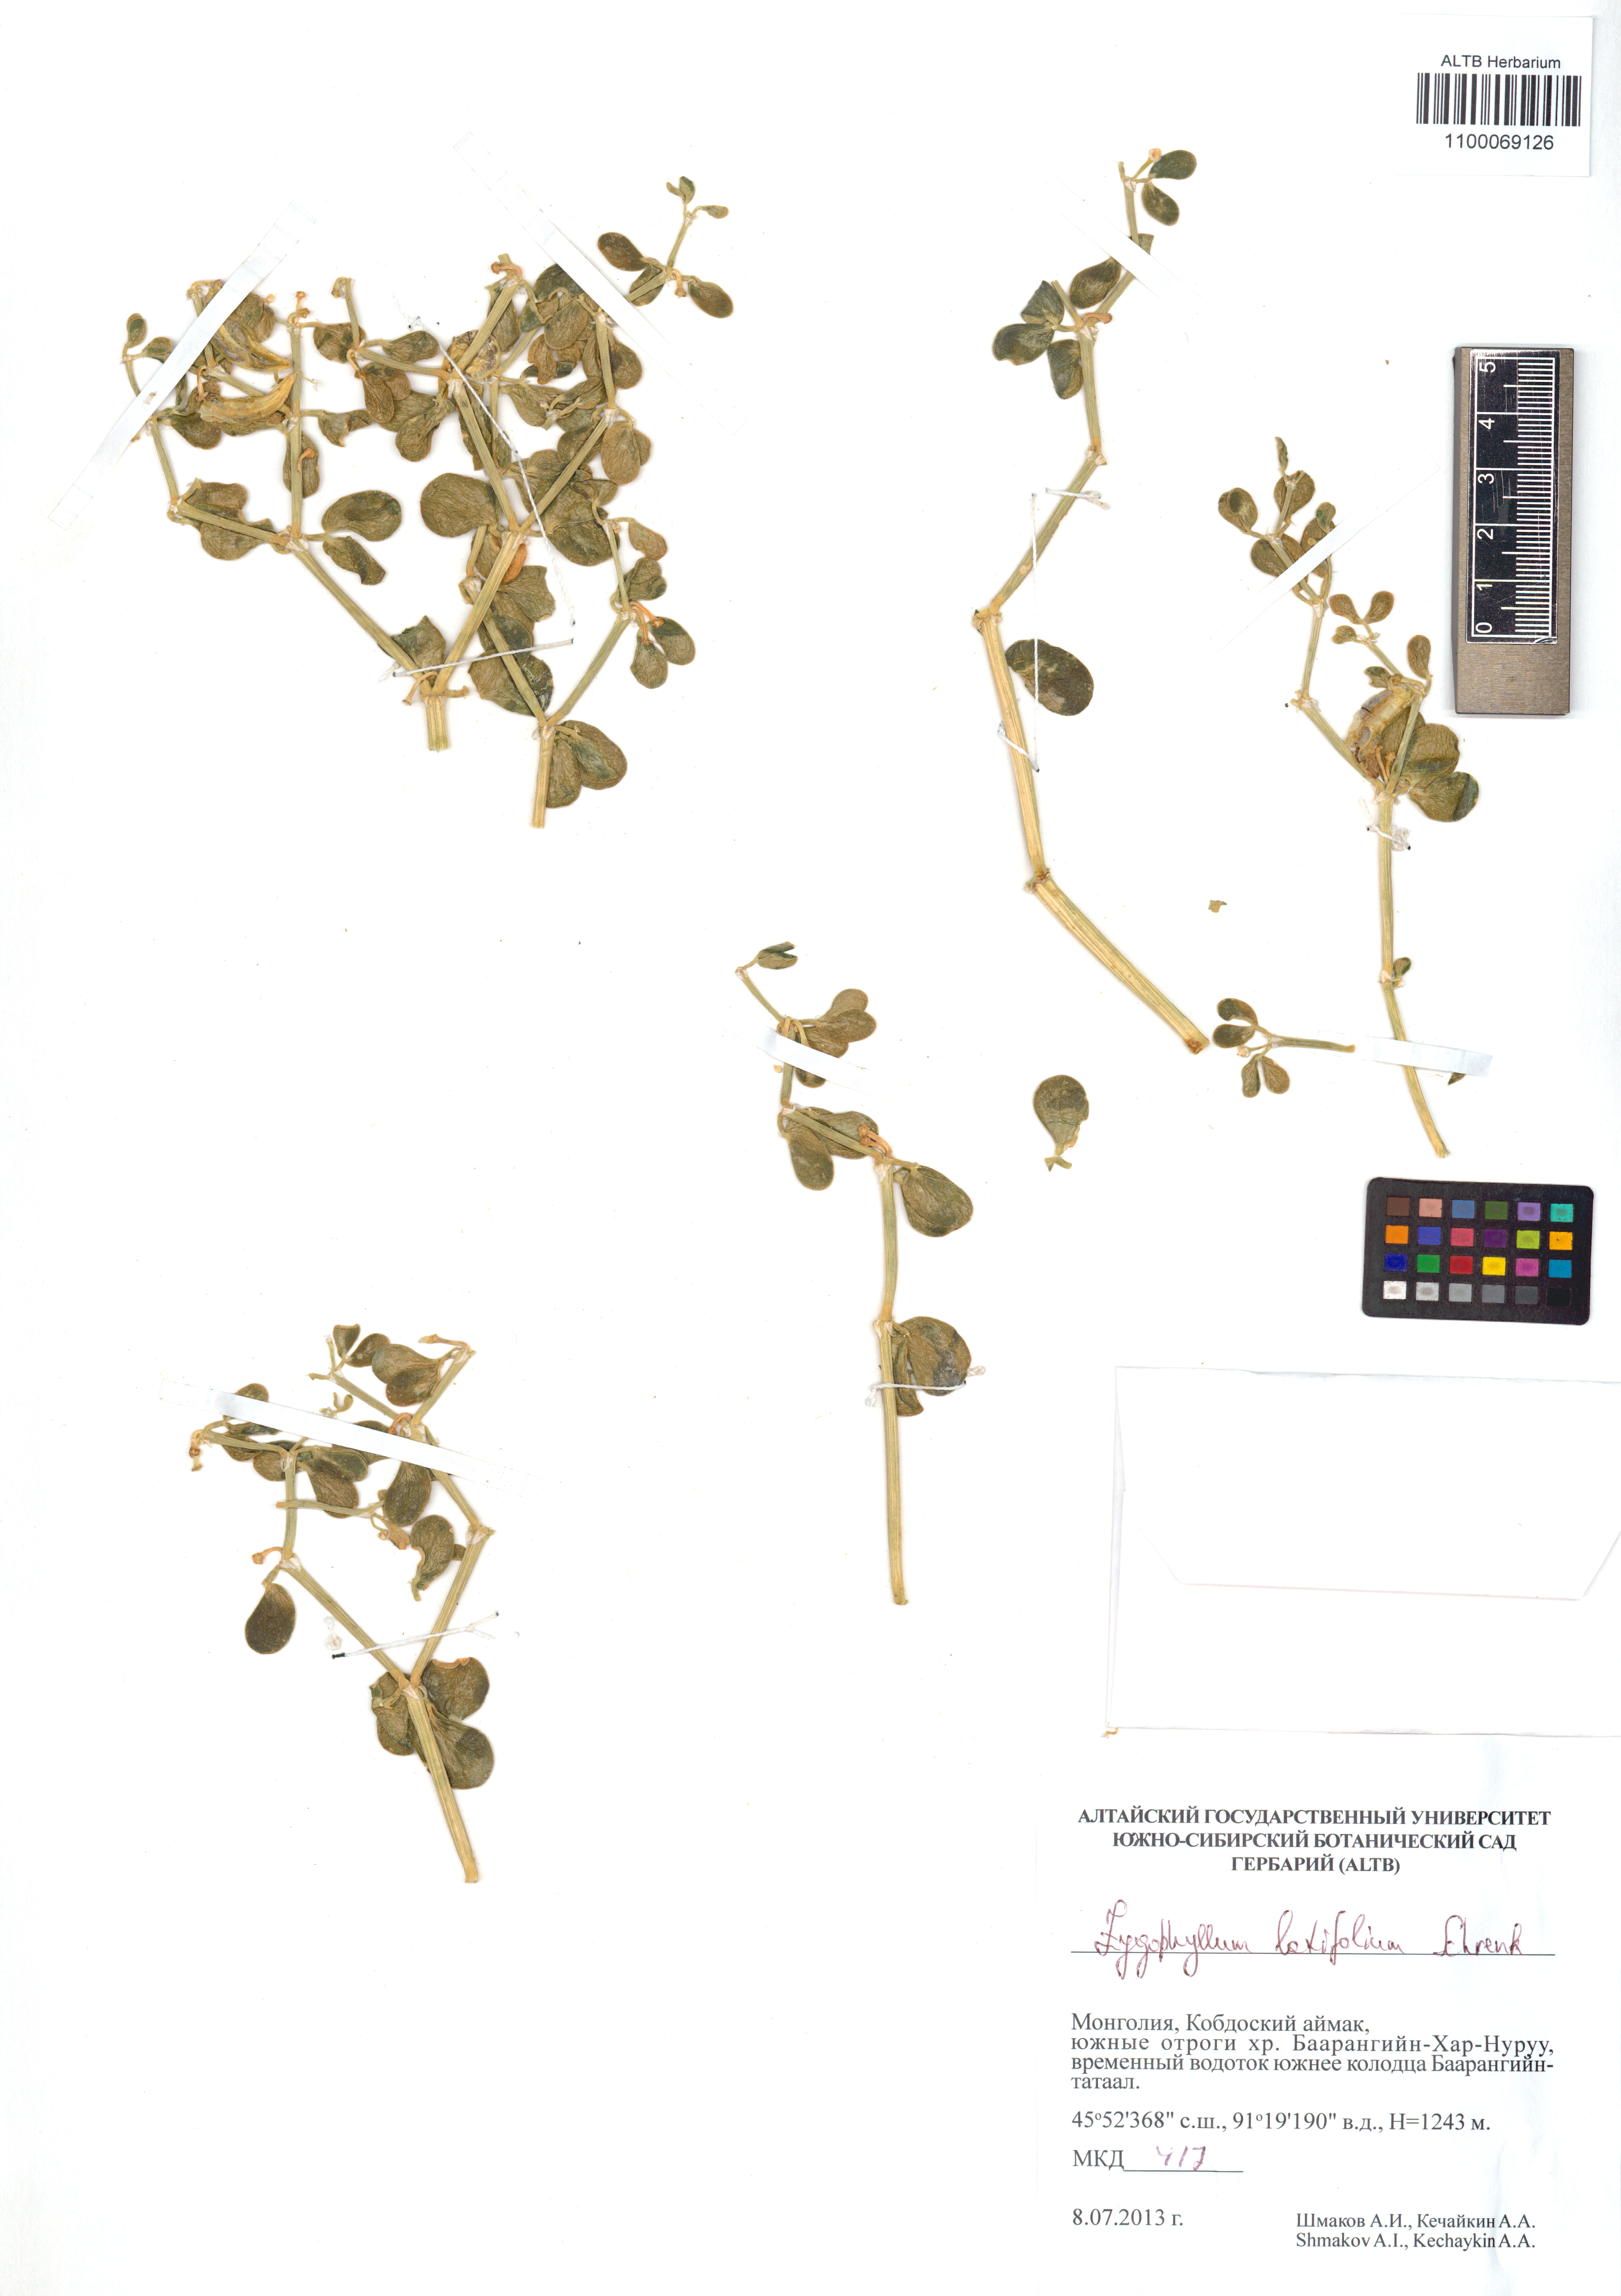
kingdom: Plantae
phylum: Tracheophyta
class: Magnoliopsida
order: Zygophyllales
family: Zygophyllaceae
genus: Zygophyllum
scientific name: Zygophyllum rosowii
